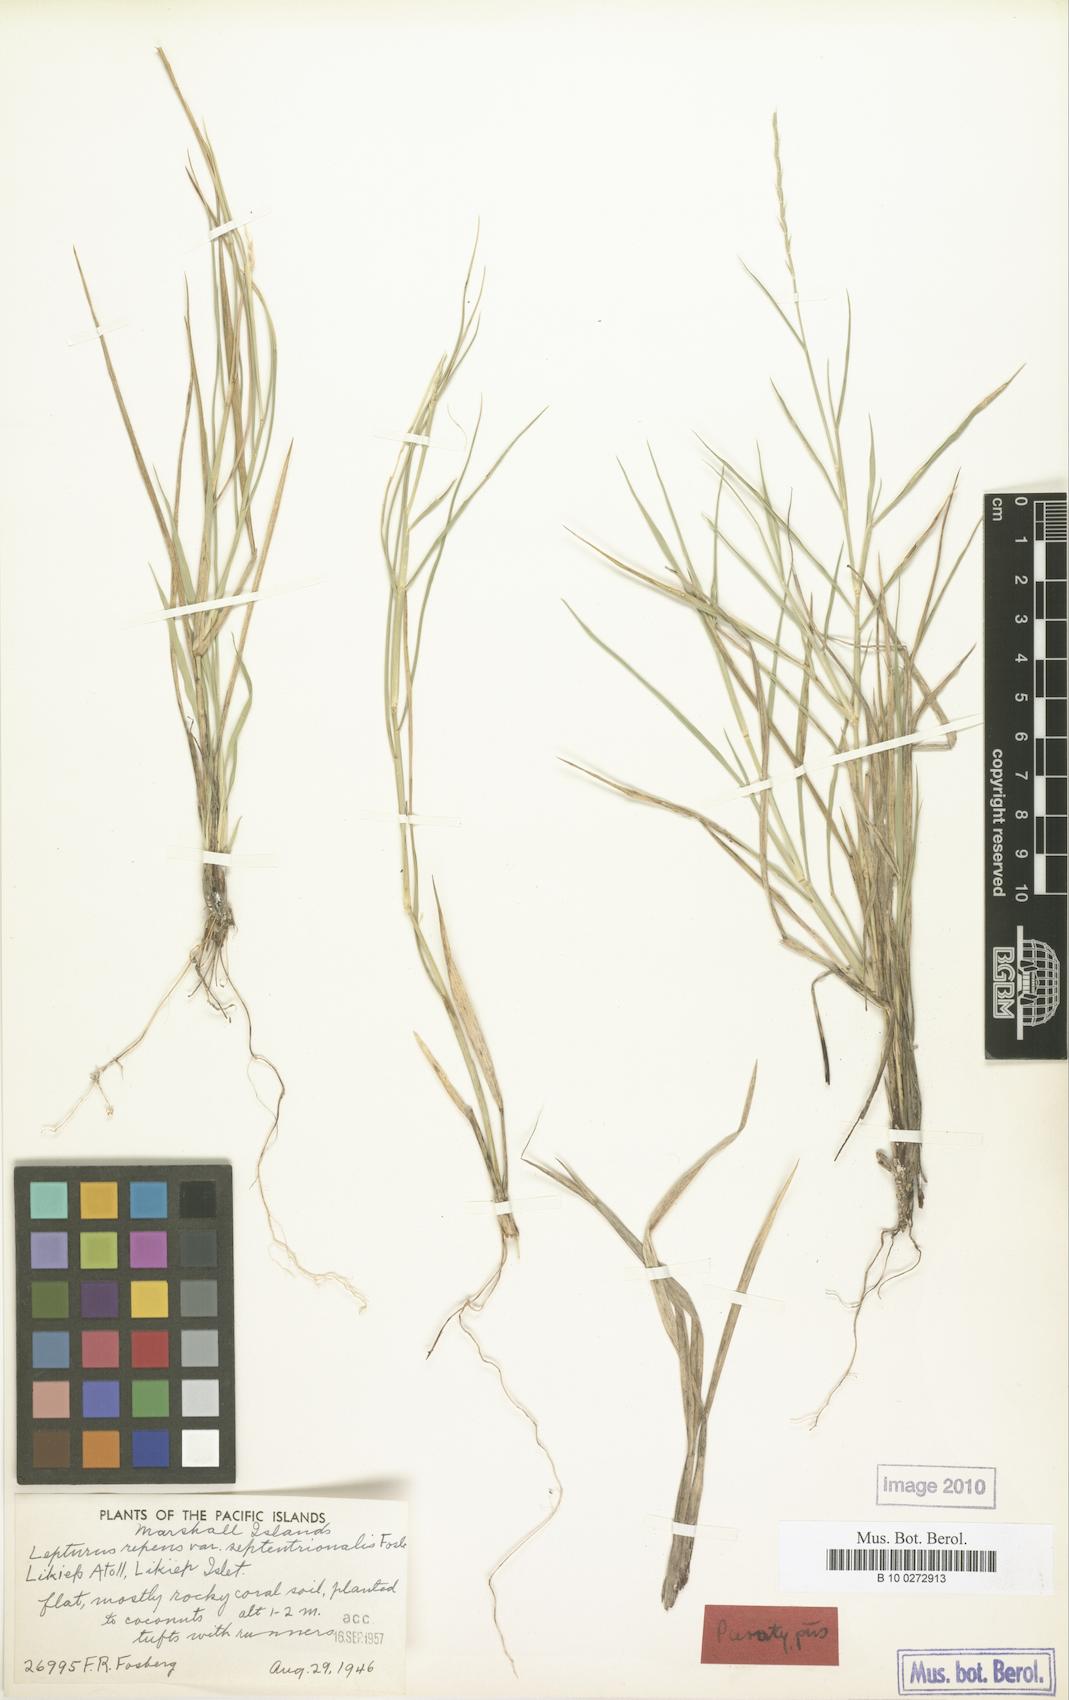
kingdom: Plantae
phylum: Tracheophyta
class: Liliopsida
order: Poales
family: Poaceae
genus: Lepturus
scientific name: Lepturus repens
